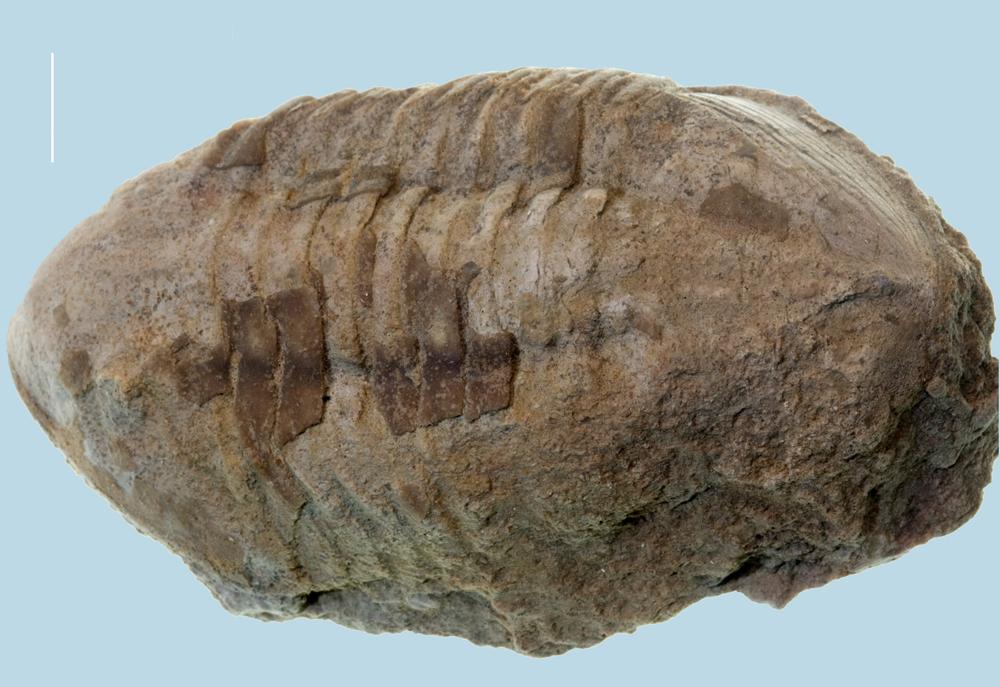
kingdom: Animalia
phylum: Arthropoda
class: Trilobita
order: Asaphida
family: Asaphidae
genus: Ptychopyge
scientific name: Ptychopyge
